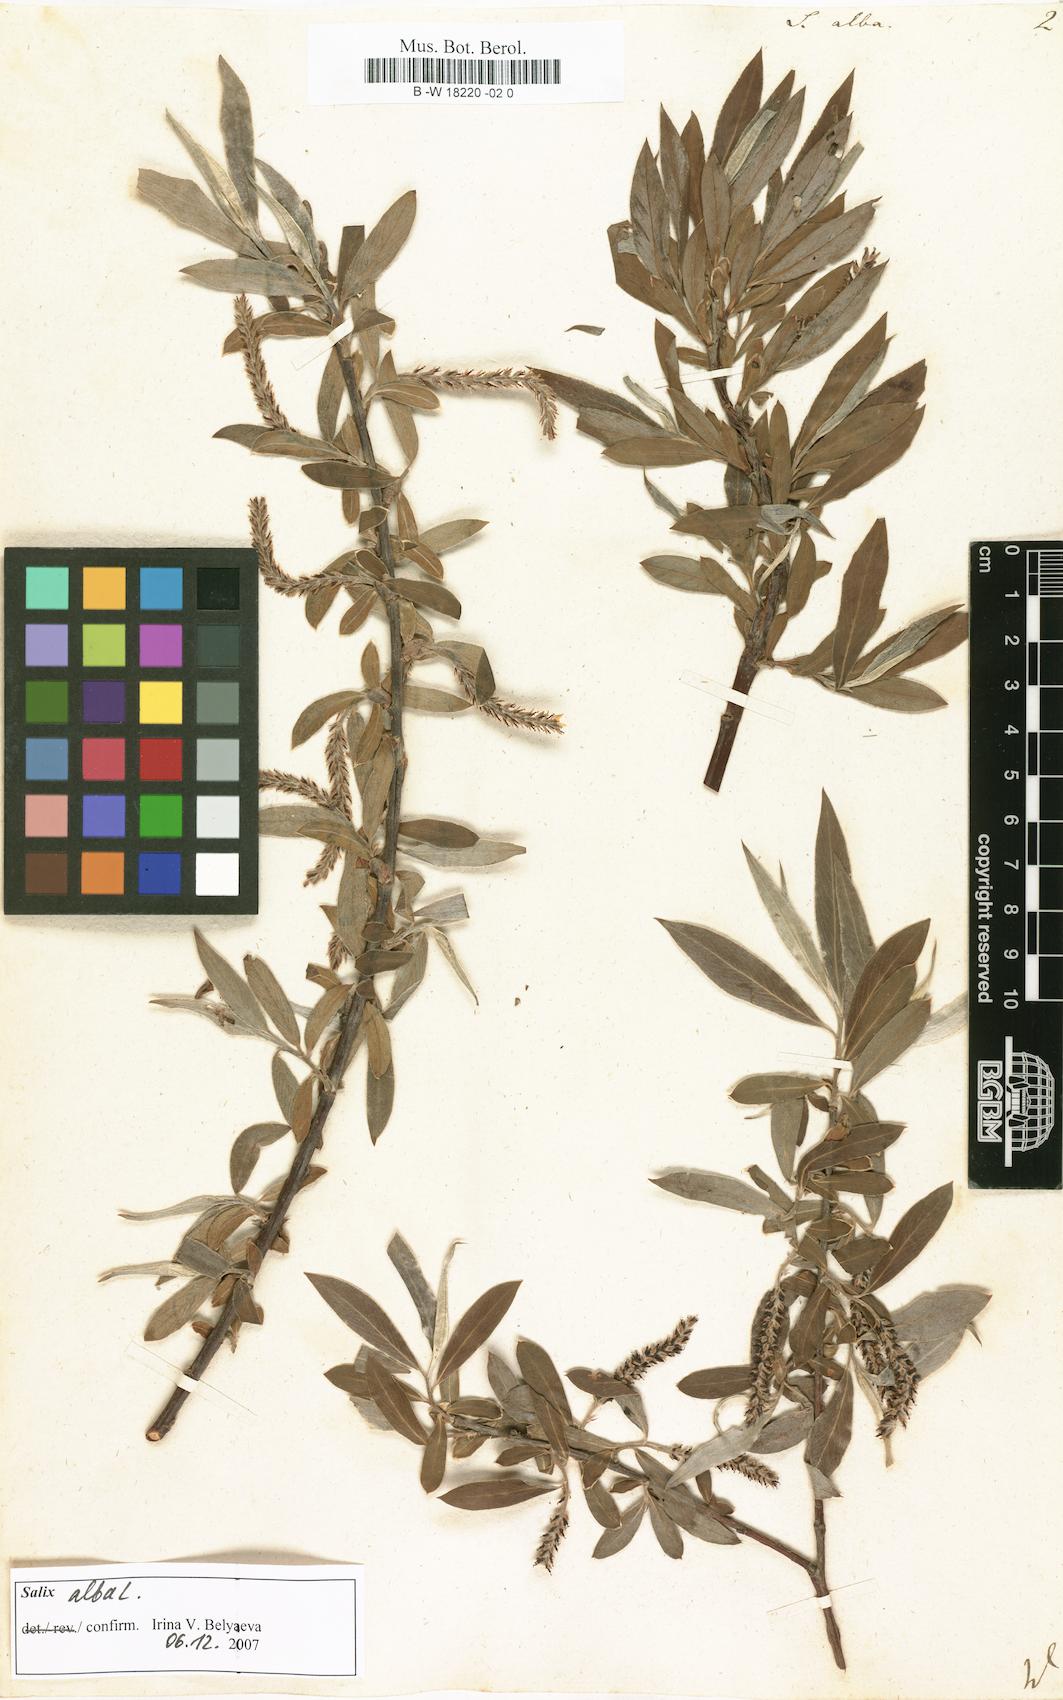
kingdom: Plantae
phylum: Tracheophyta
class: Magnoliopsida
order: Malpighiales
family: Salicaceae
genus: Salix
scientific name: Salix alba
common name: White willow
